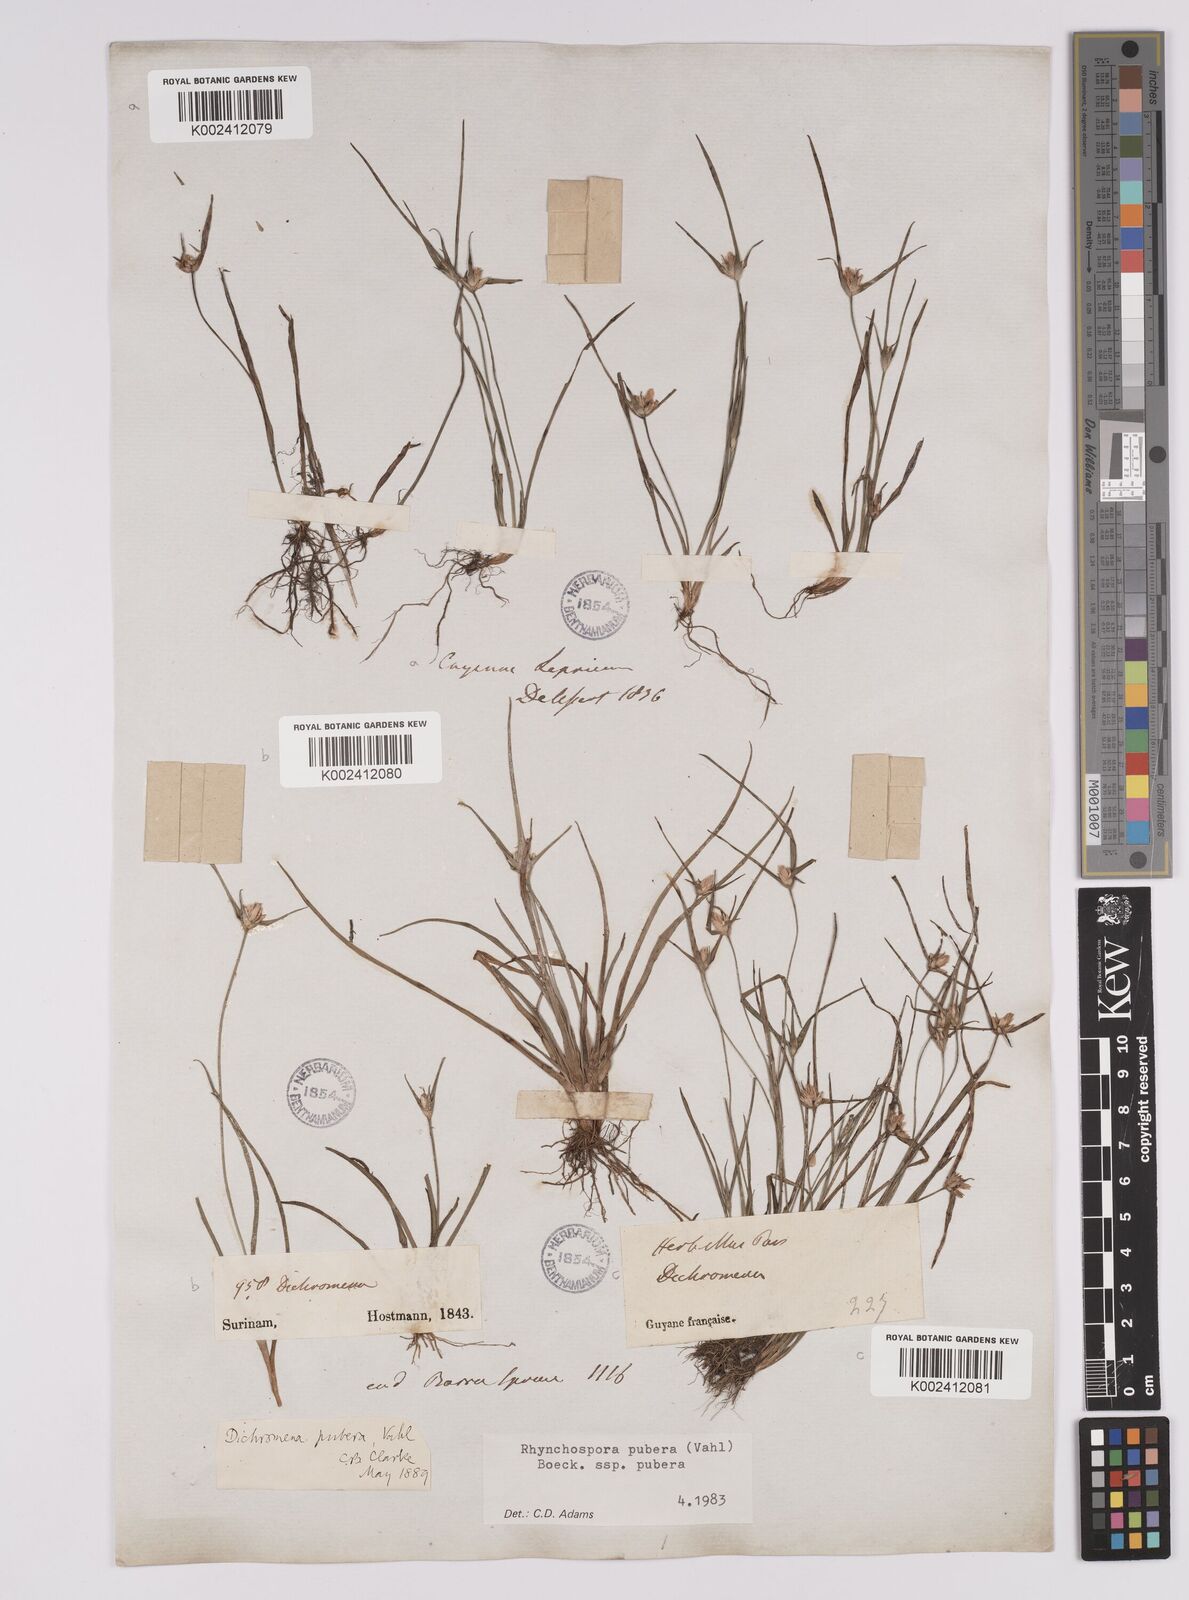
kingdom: Plantae
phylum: Tracheophyta
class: Liliopsida
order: Poales
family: Cyperaceae
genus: Rhynchospora
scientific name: Rhynchospora pubera
